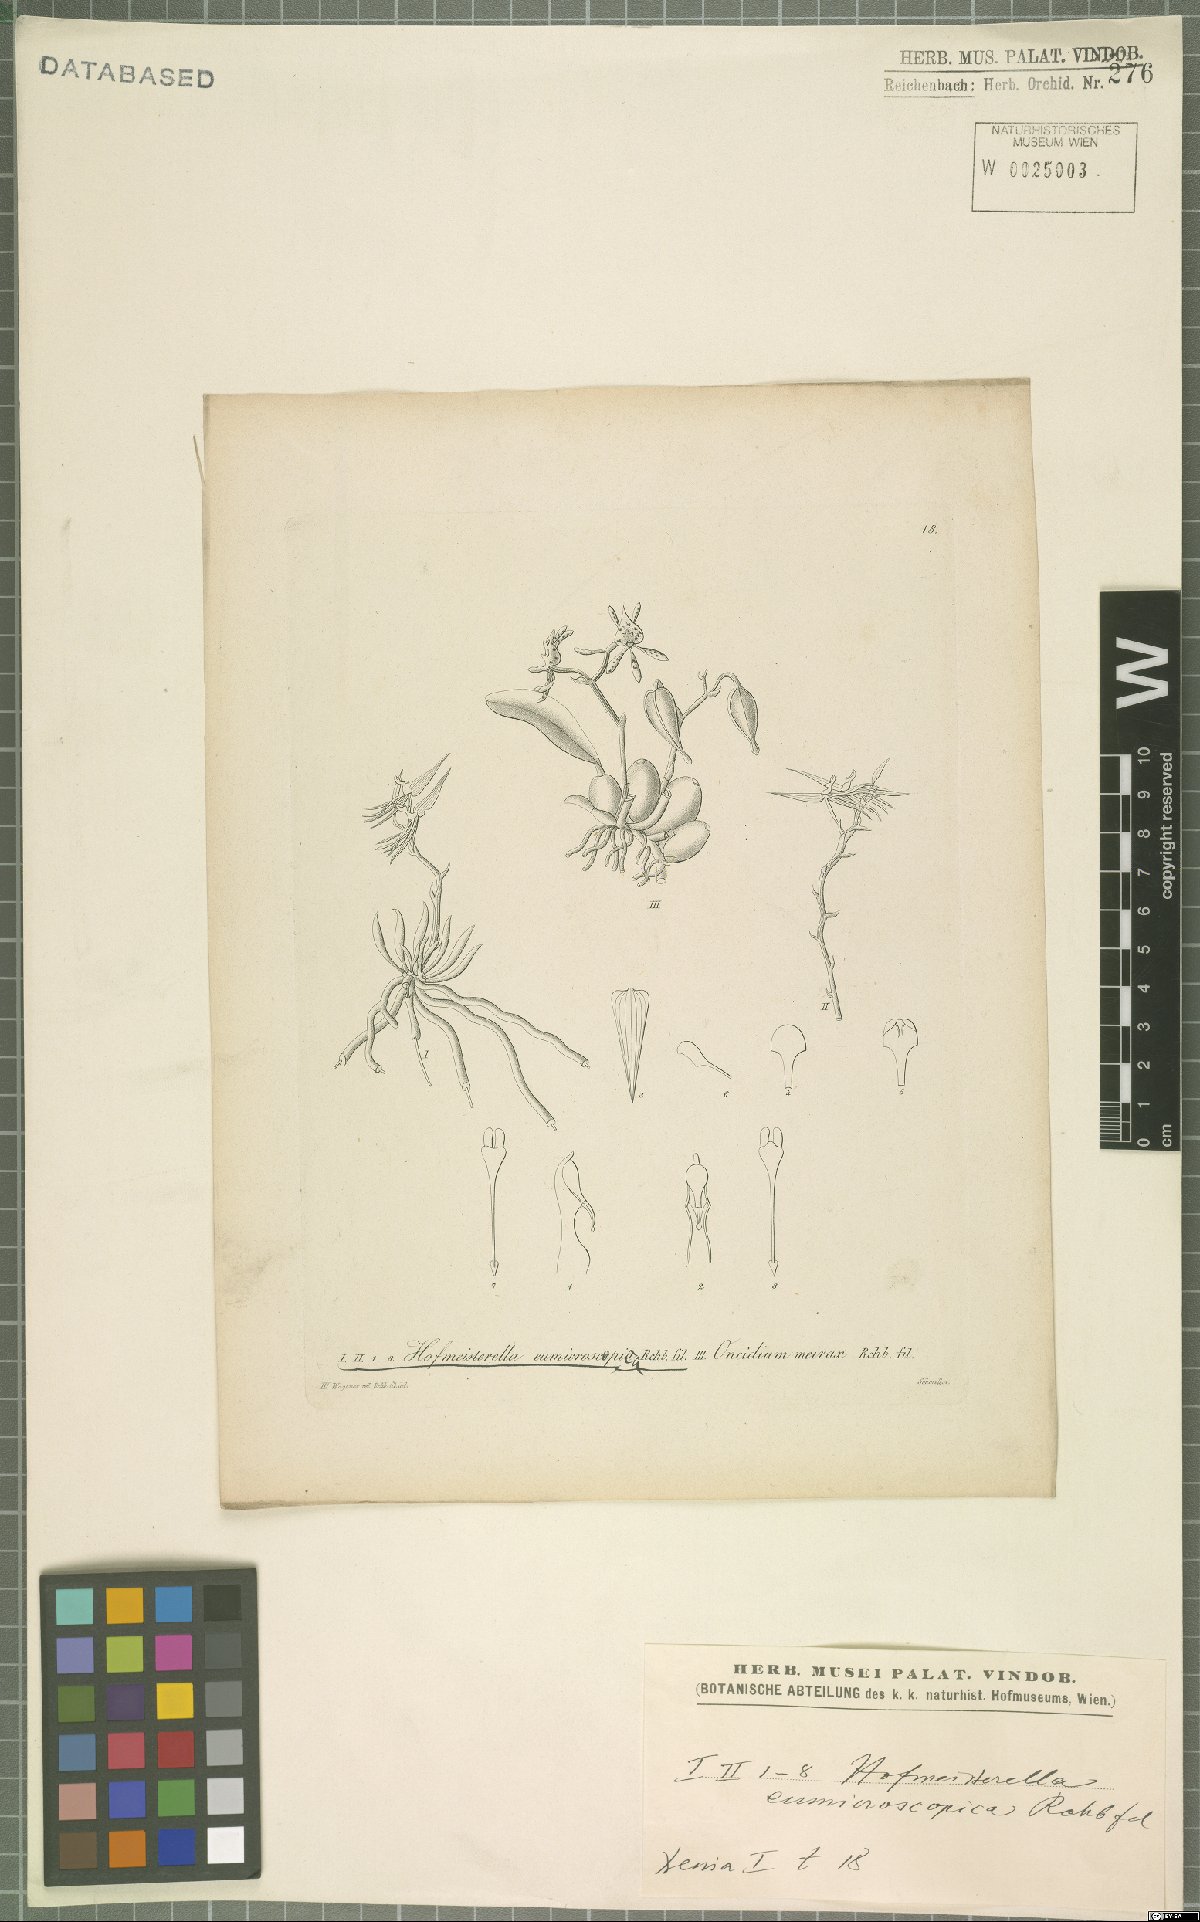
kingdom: Plantae
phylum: Tracheophyta
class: Liliopsida
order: Asparagales
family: Orchidaceae
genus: Hofmeisterella
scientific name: Hofmeisterella eumicroscopica
